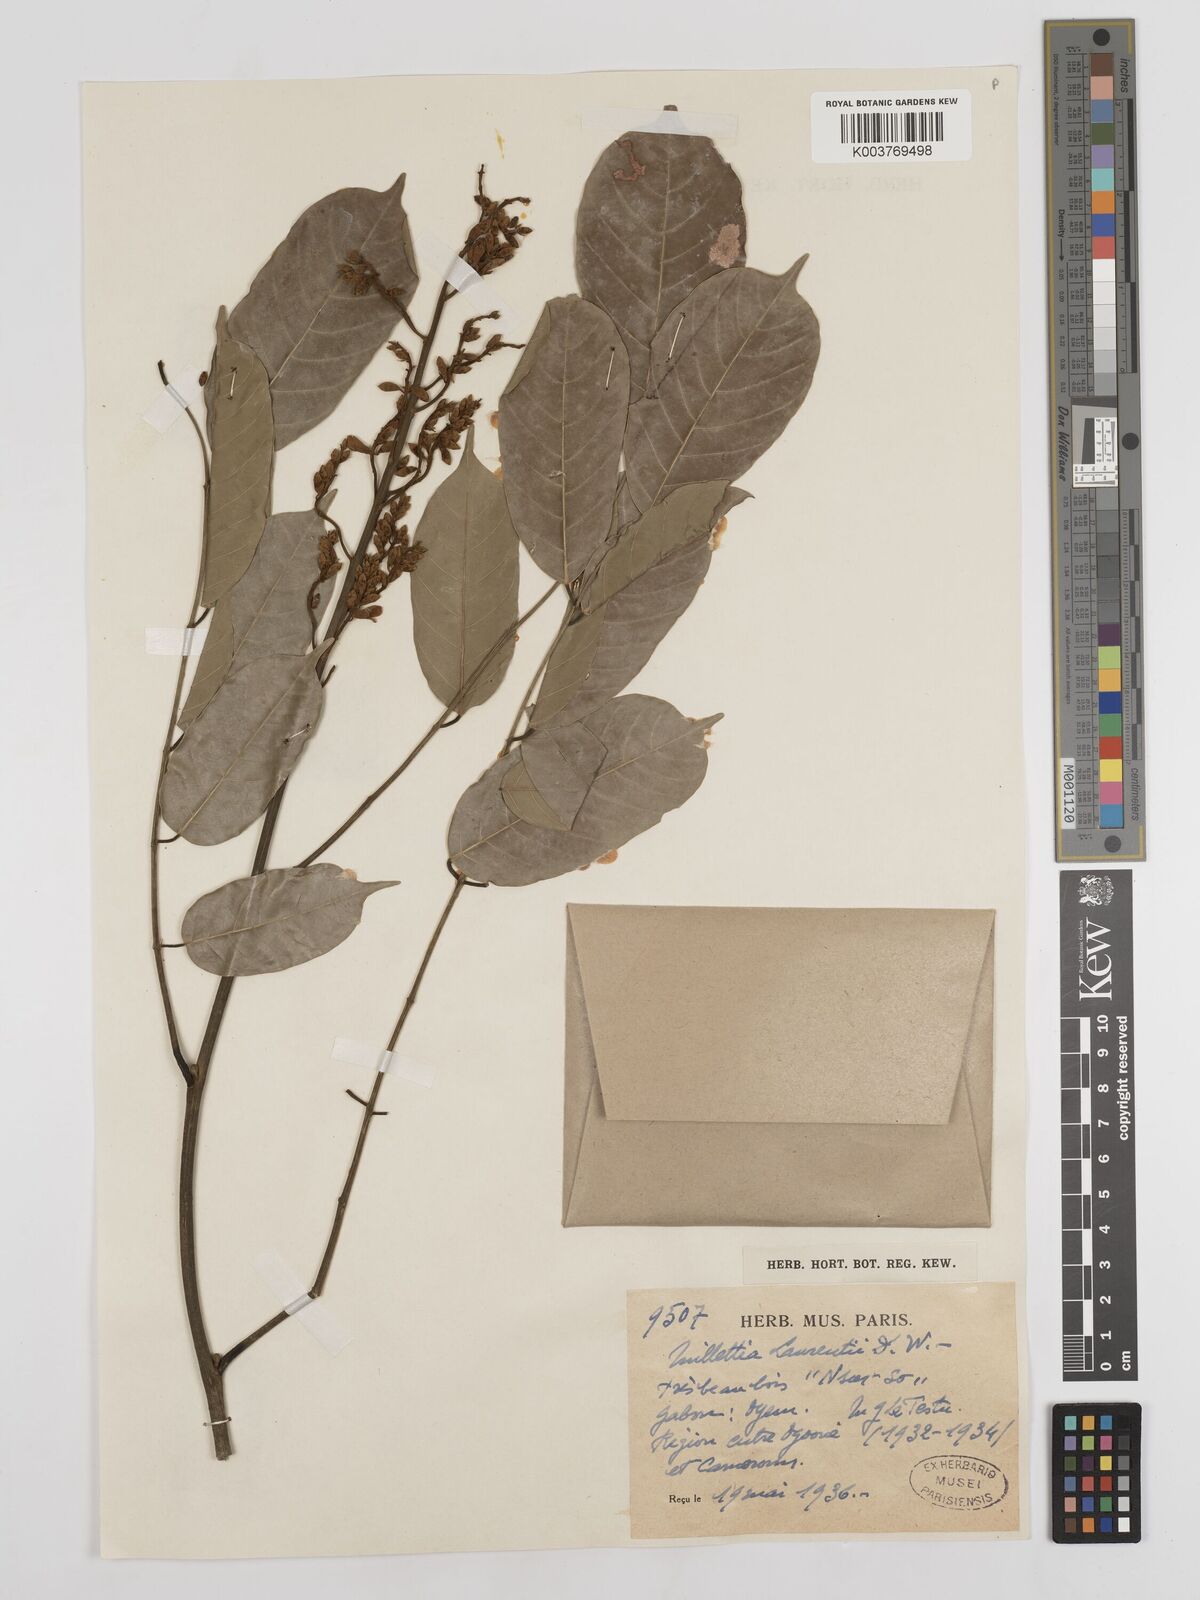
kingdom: Plantae
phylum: Tracheophyta
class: Magnoliopsida
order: Fabales
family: Fabaceae
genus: Millettia
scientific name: Millettia laurentii
